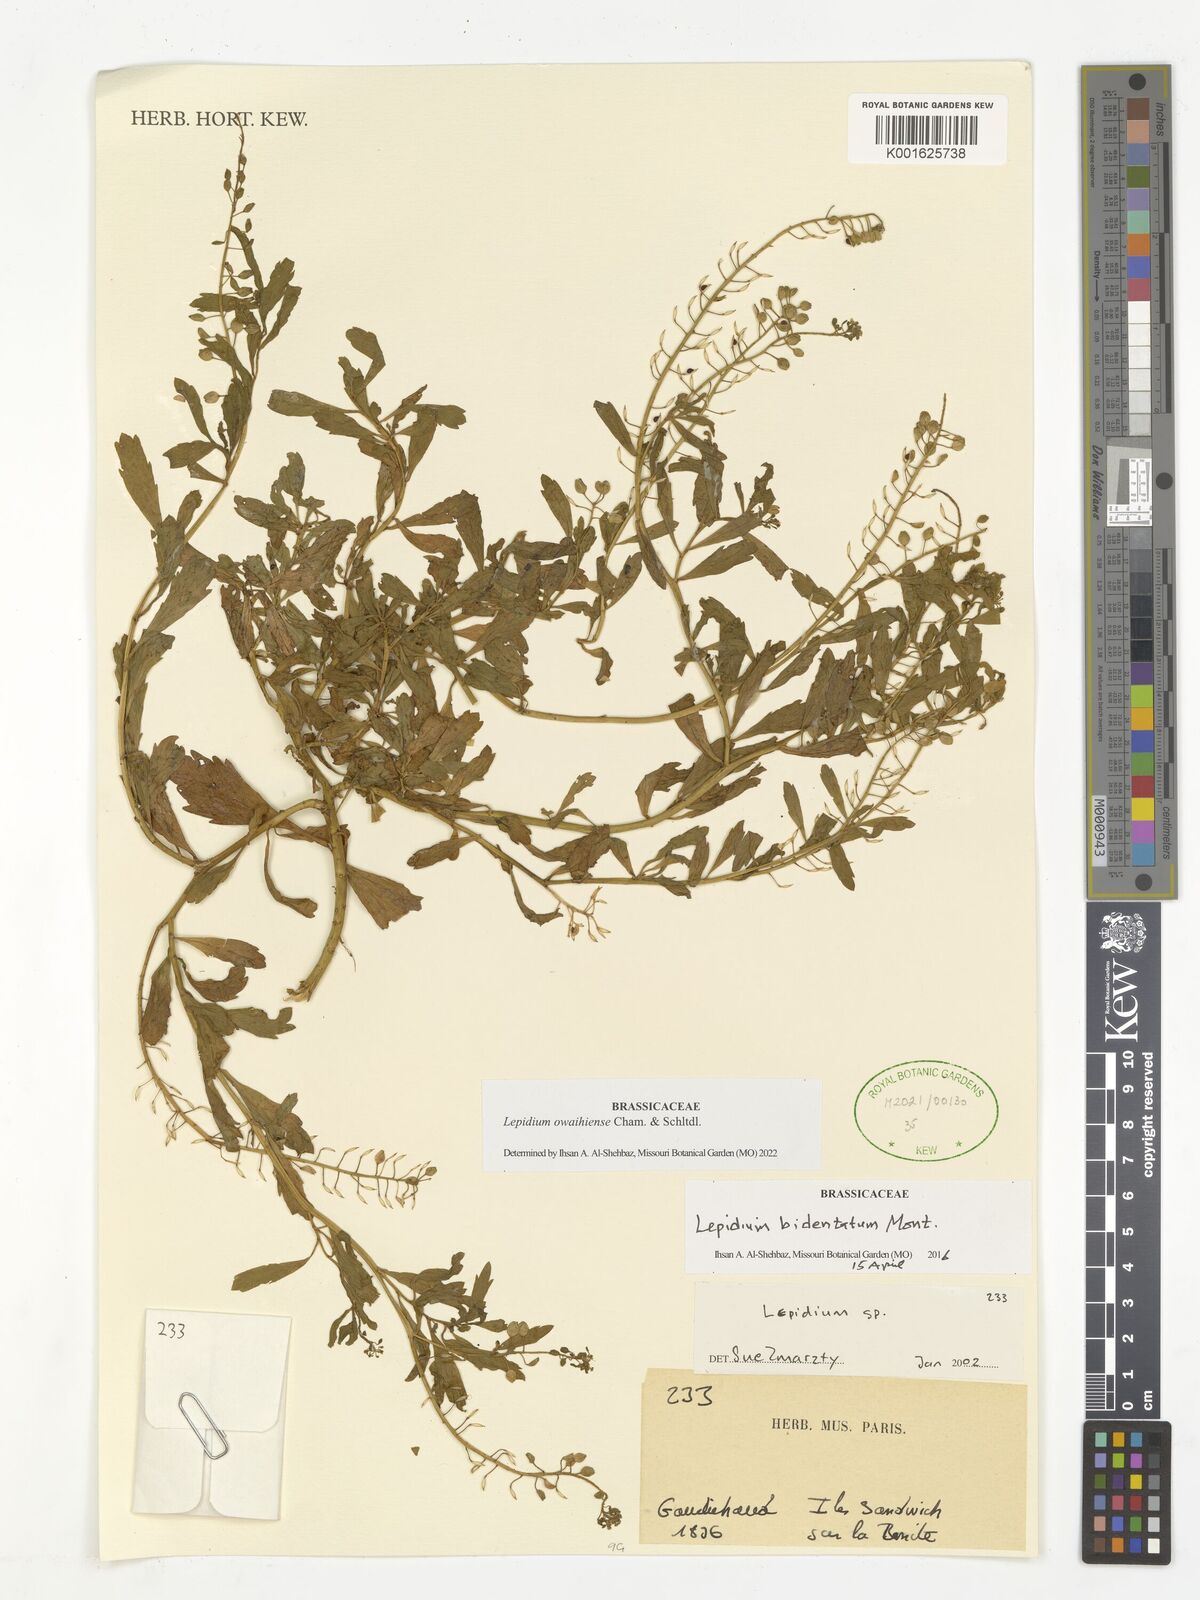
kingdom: Plantae
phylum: Tracheophyta
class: Magnoliopsida
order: Brassicales
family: Brassicaceae
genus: Lepidium
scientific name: Lepidium owaihiense
